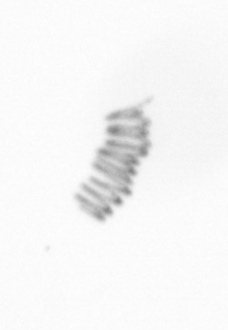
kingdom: Chromista
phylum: Ochrophyta
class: Bacillariophyceae
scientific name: Bacillariophyceae
